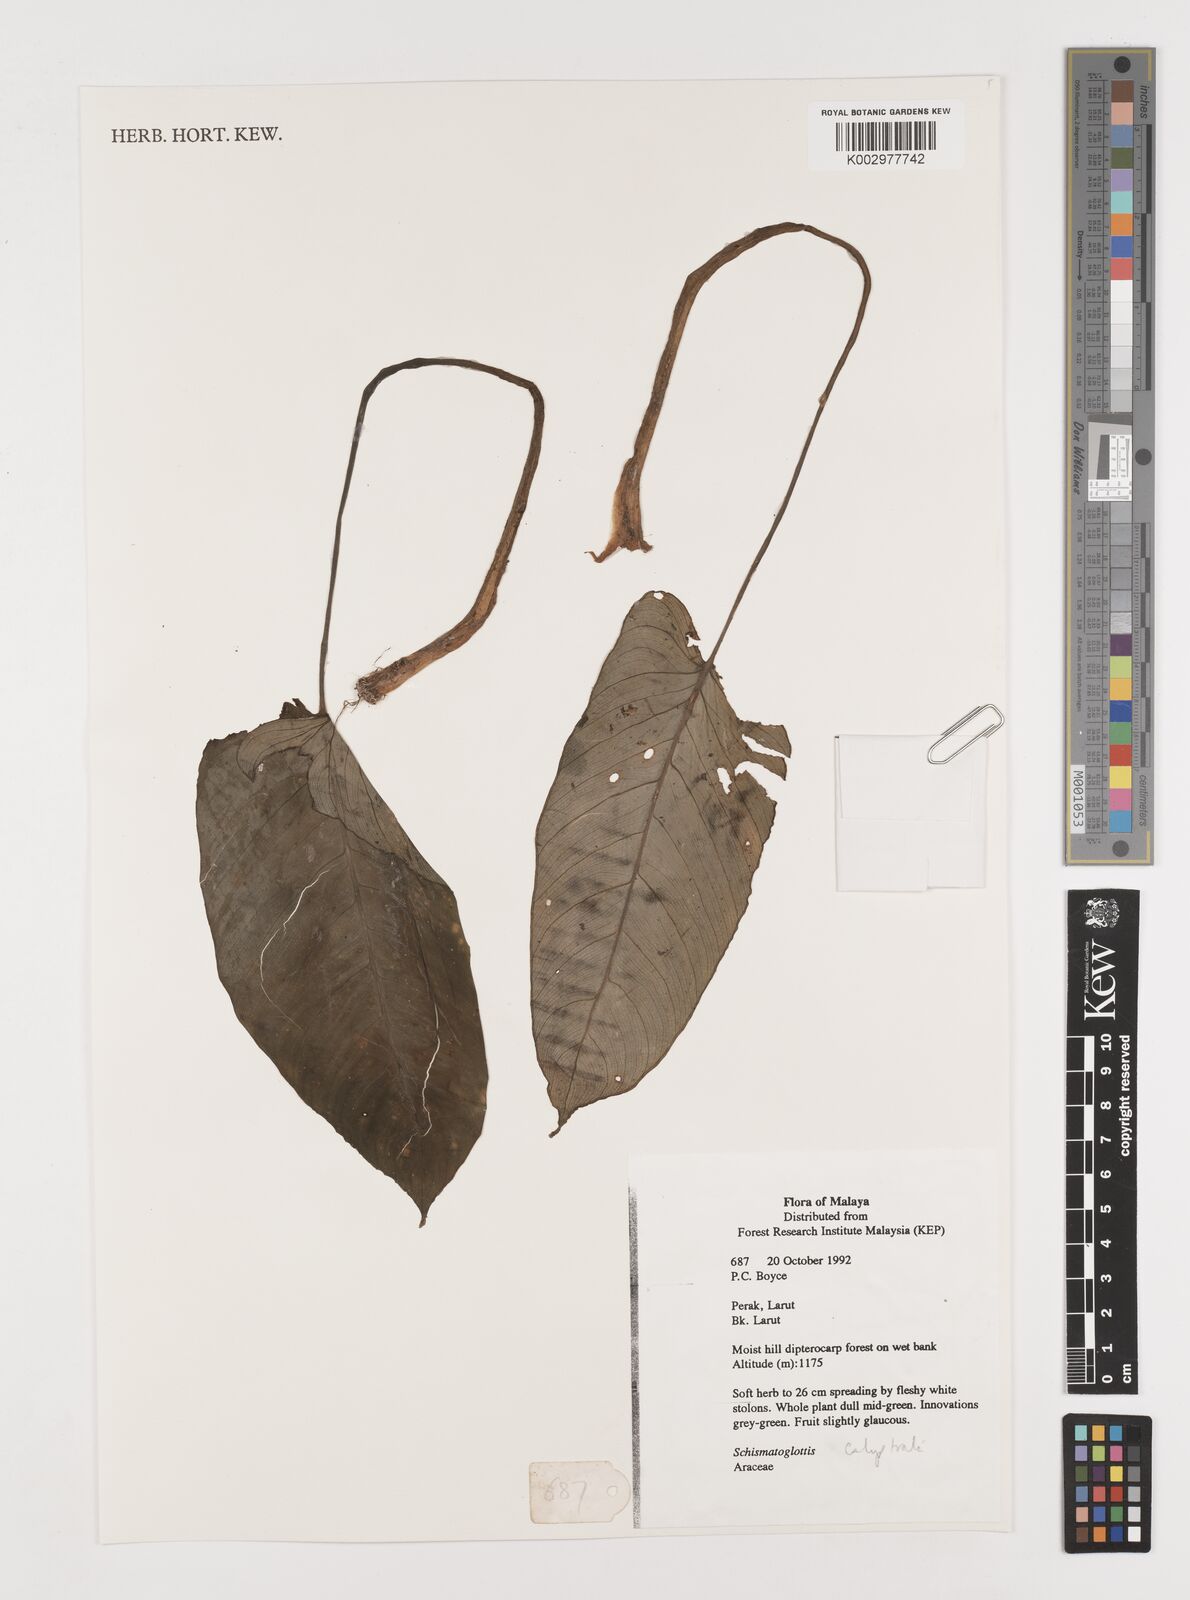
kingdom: Plantae
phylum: Tracheophyta
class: Liliopsida
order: Alismatales
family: Araceae
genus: Schismatoglottis
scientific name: Schismatoglottis calyptrata
